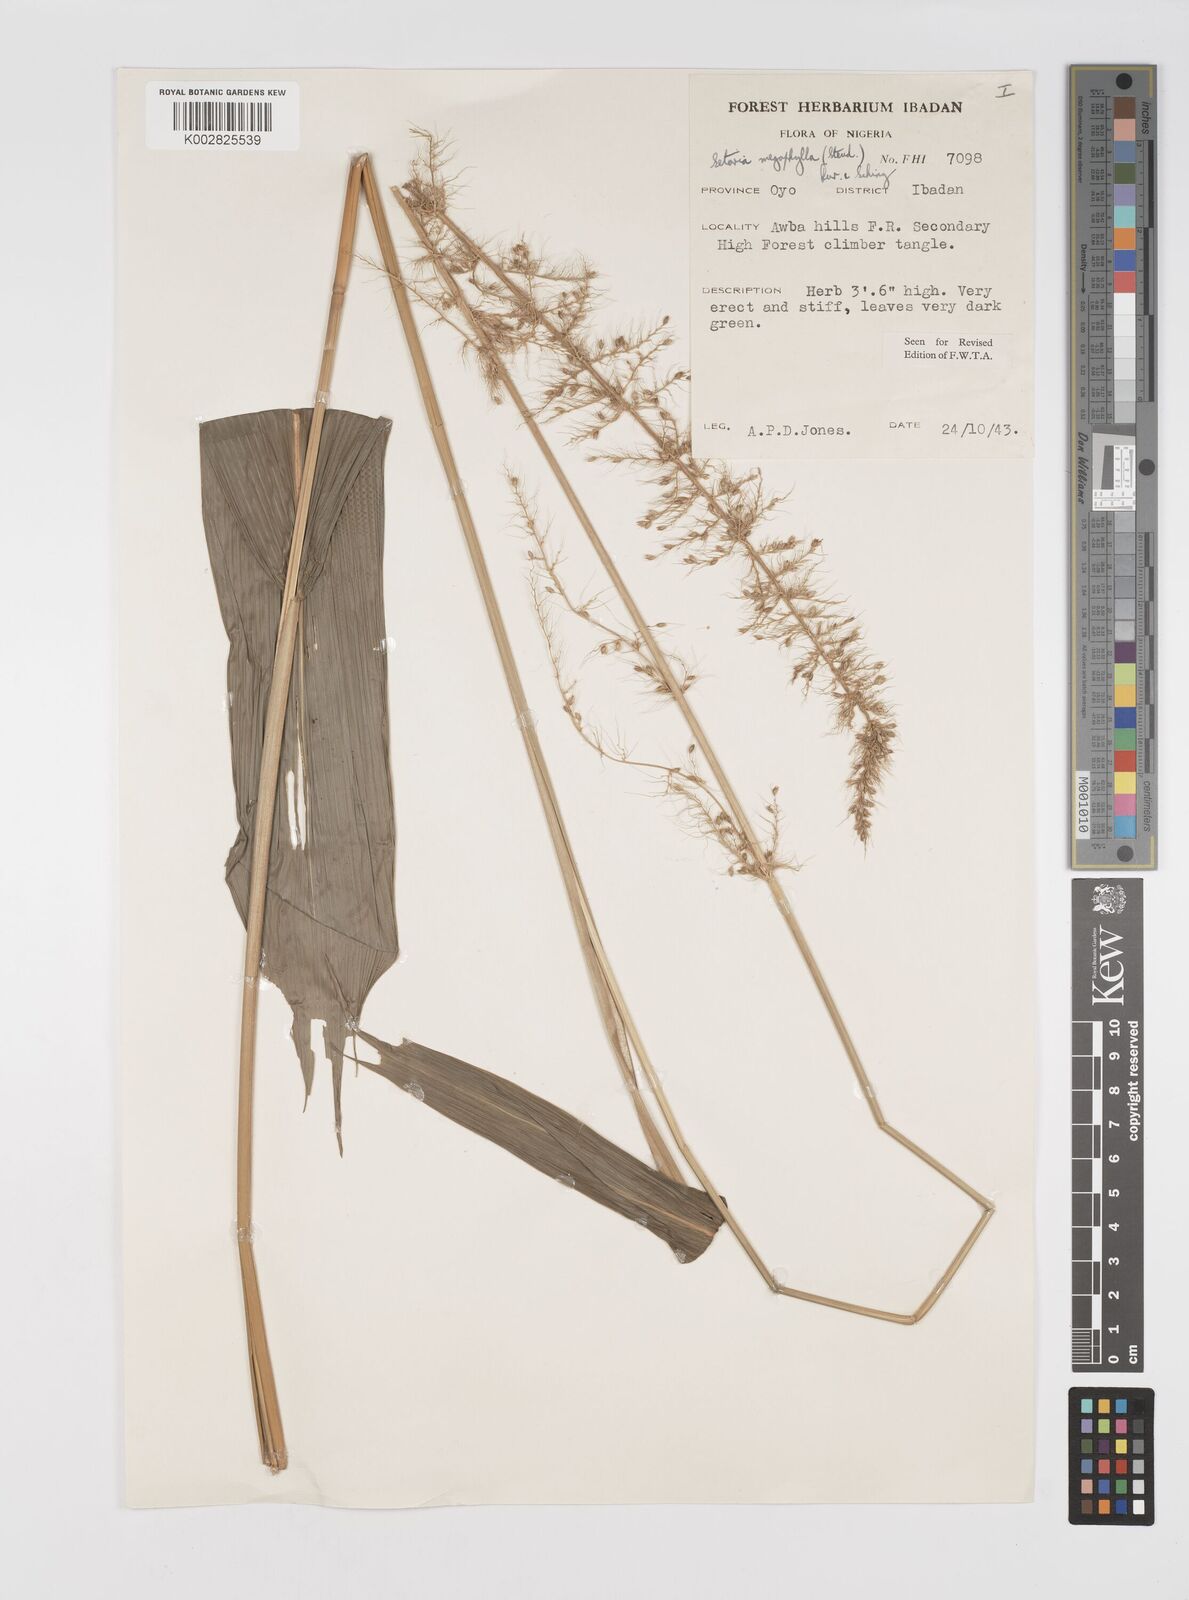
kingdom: Plantae
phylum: Tracheophyta
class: Liliopsida
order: Poales
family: Poaceae
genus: Setaria
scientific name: Setaria megaphylla
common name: Bigleaf bristlegrass
